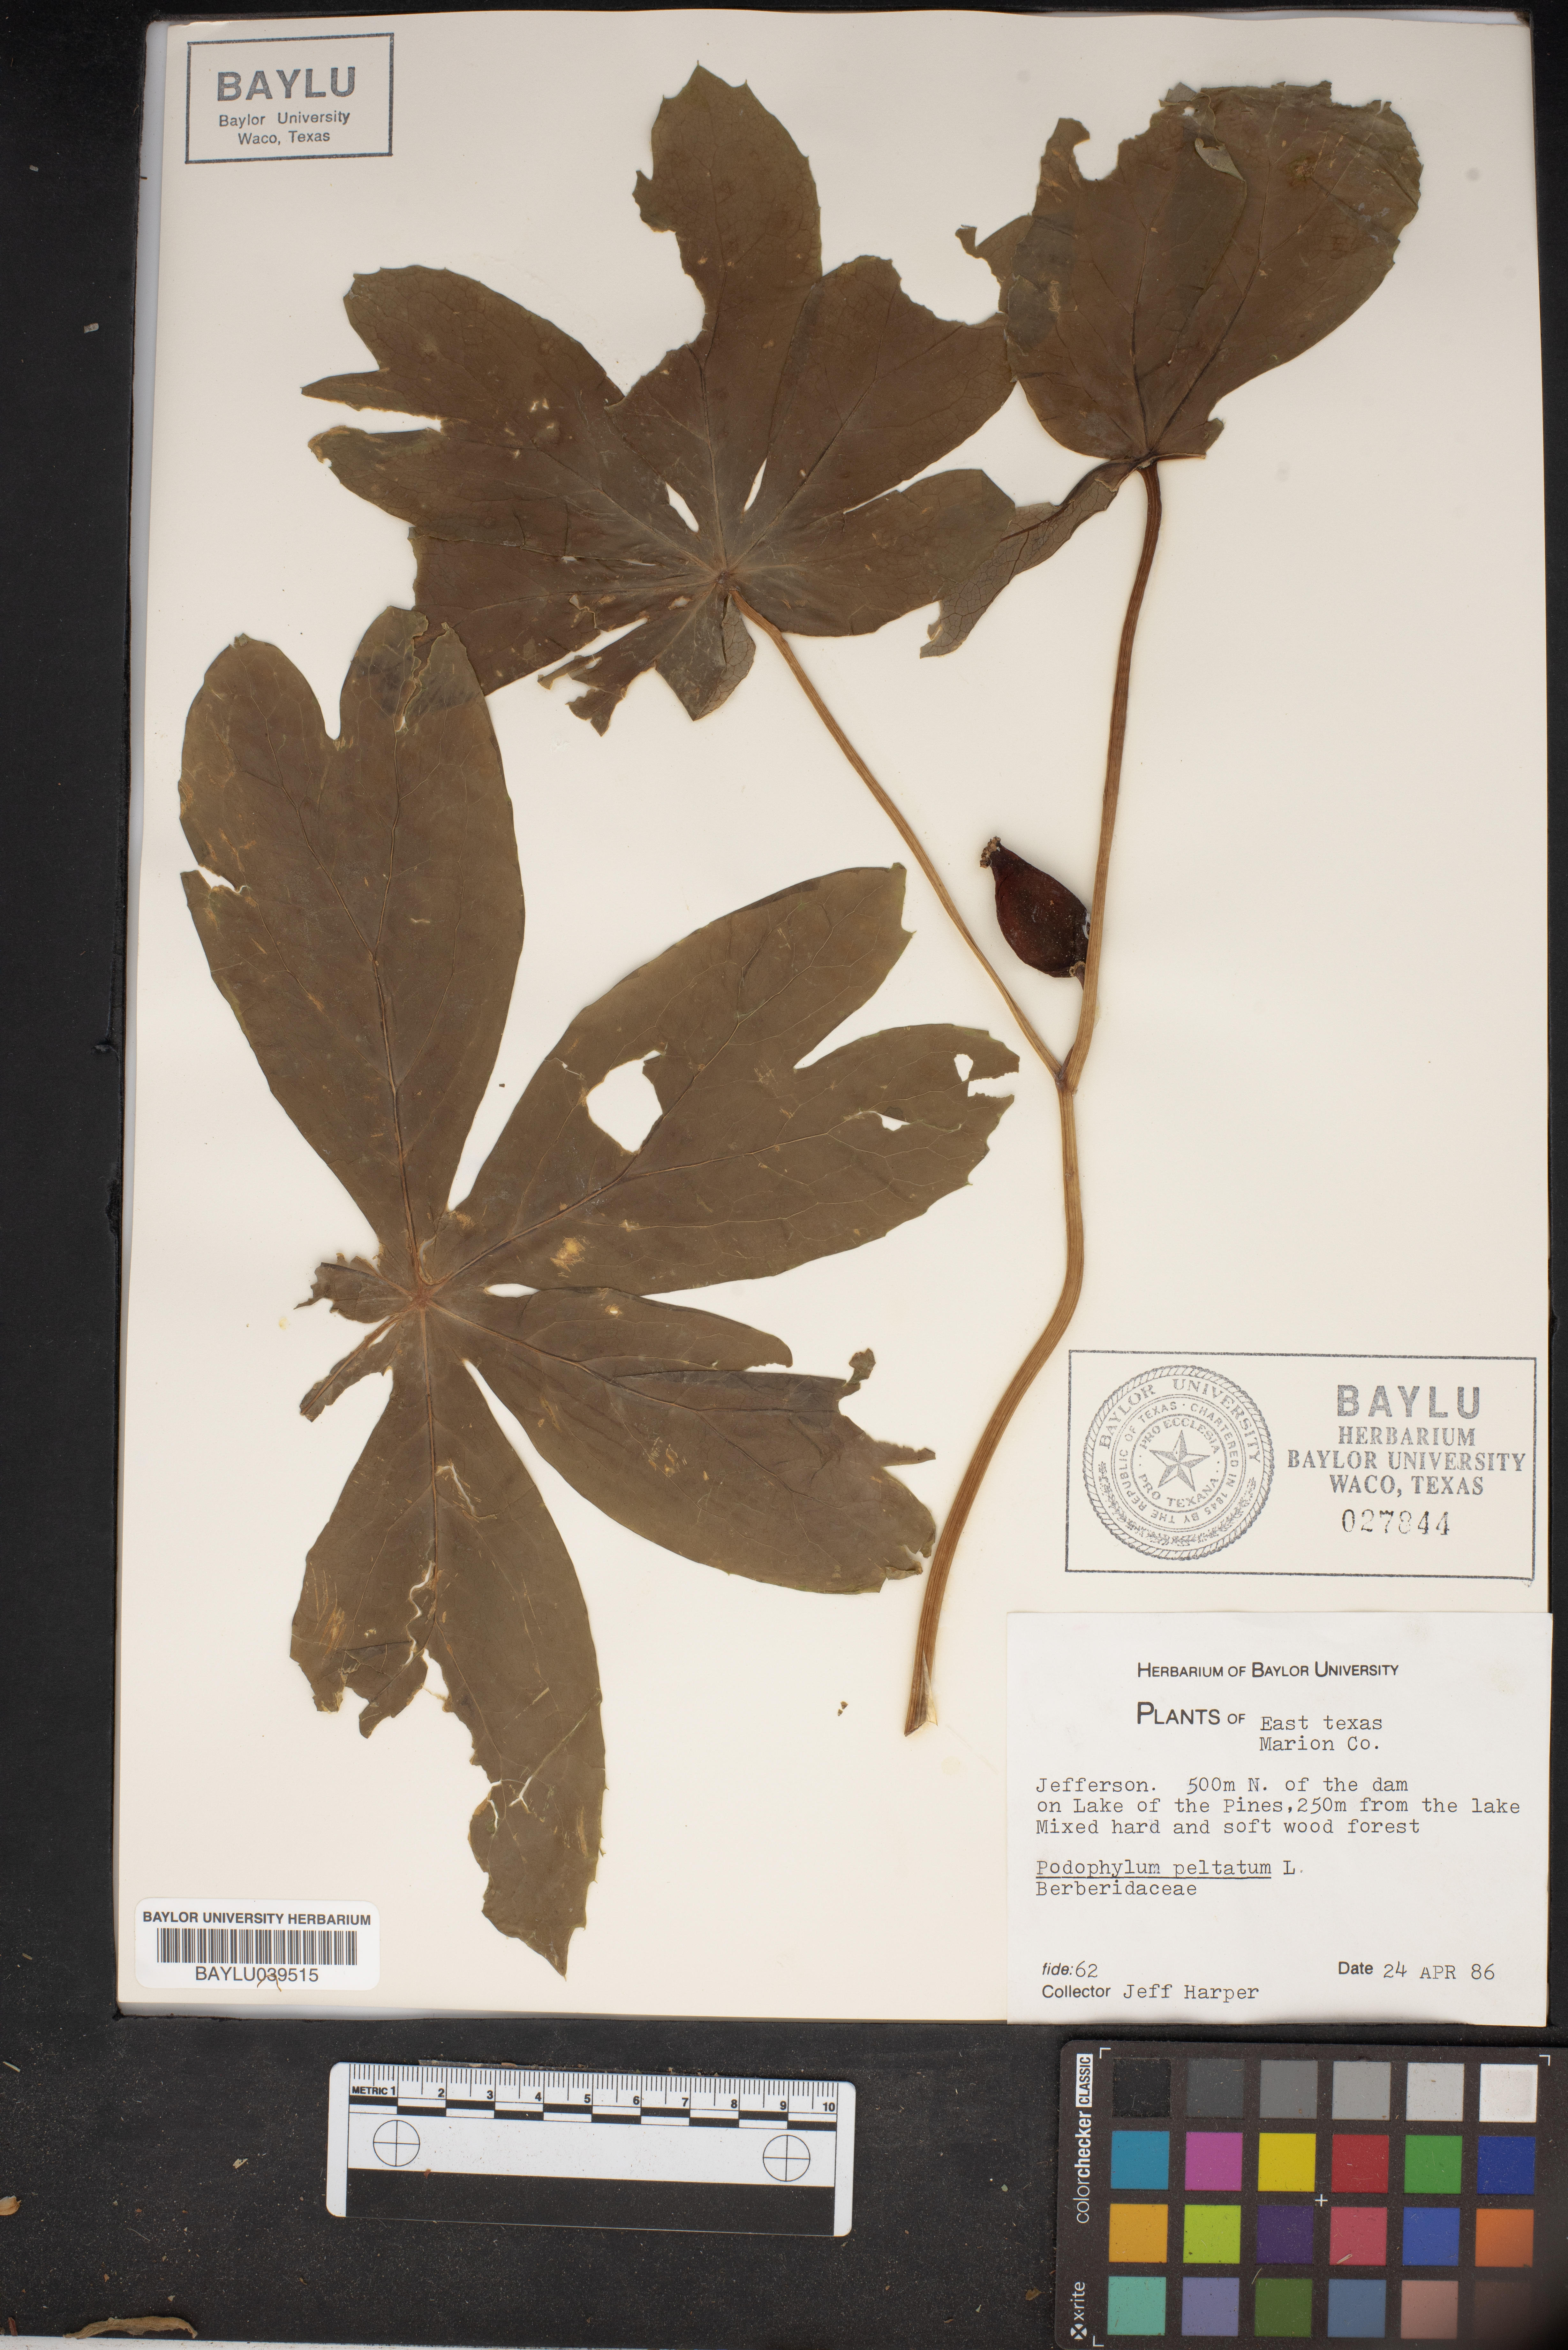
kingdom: Plantae
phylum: Tracheophyta
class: Magnoliopsida
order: Ranunculales
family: Berberidaceae
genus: Podophyllum
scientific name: Podophyllum peltatum
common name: Wild mandrake
